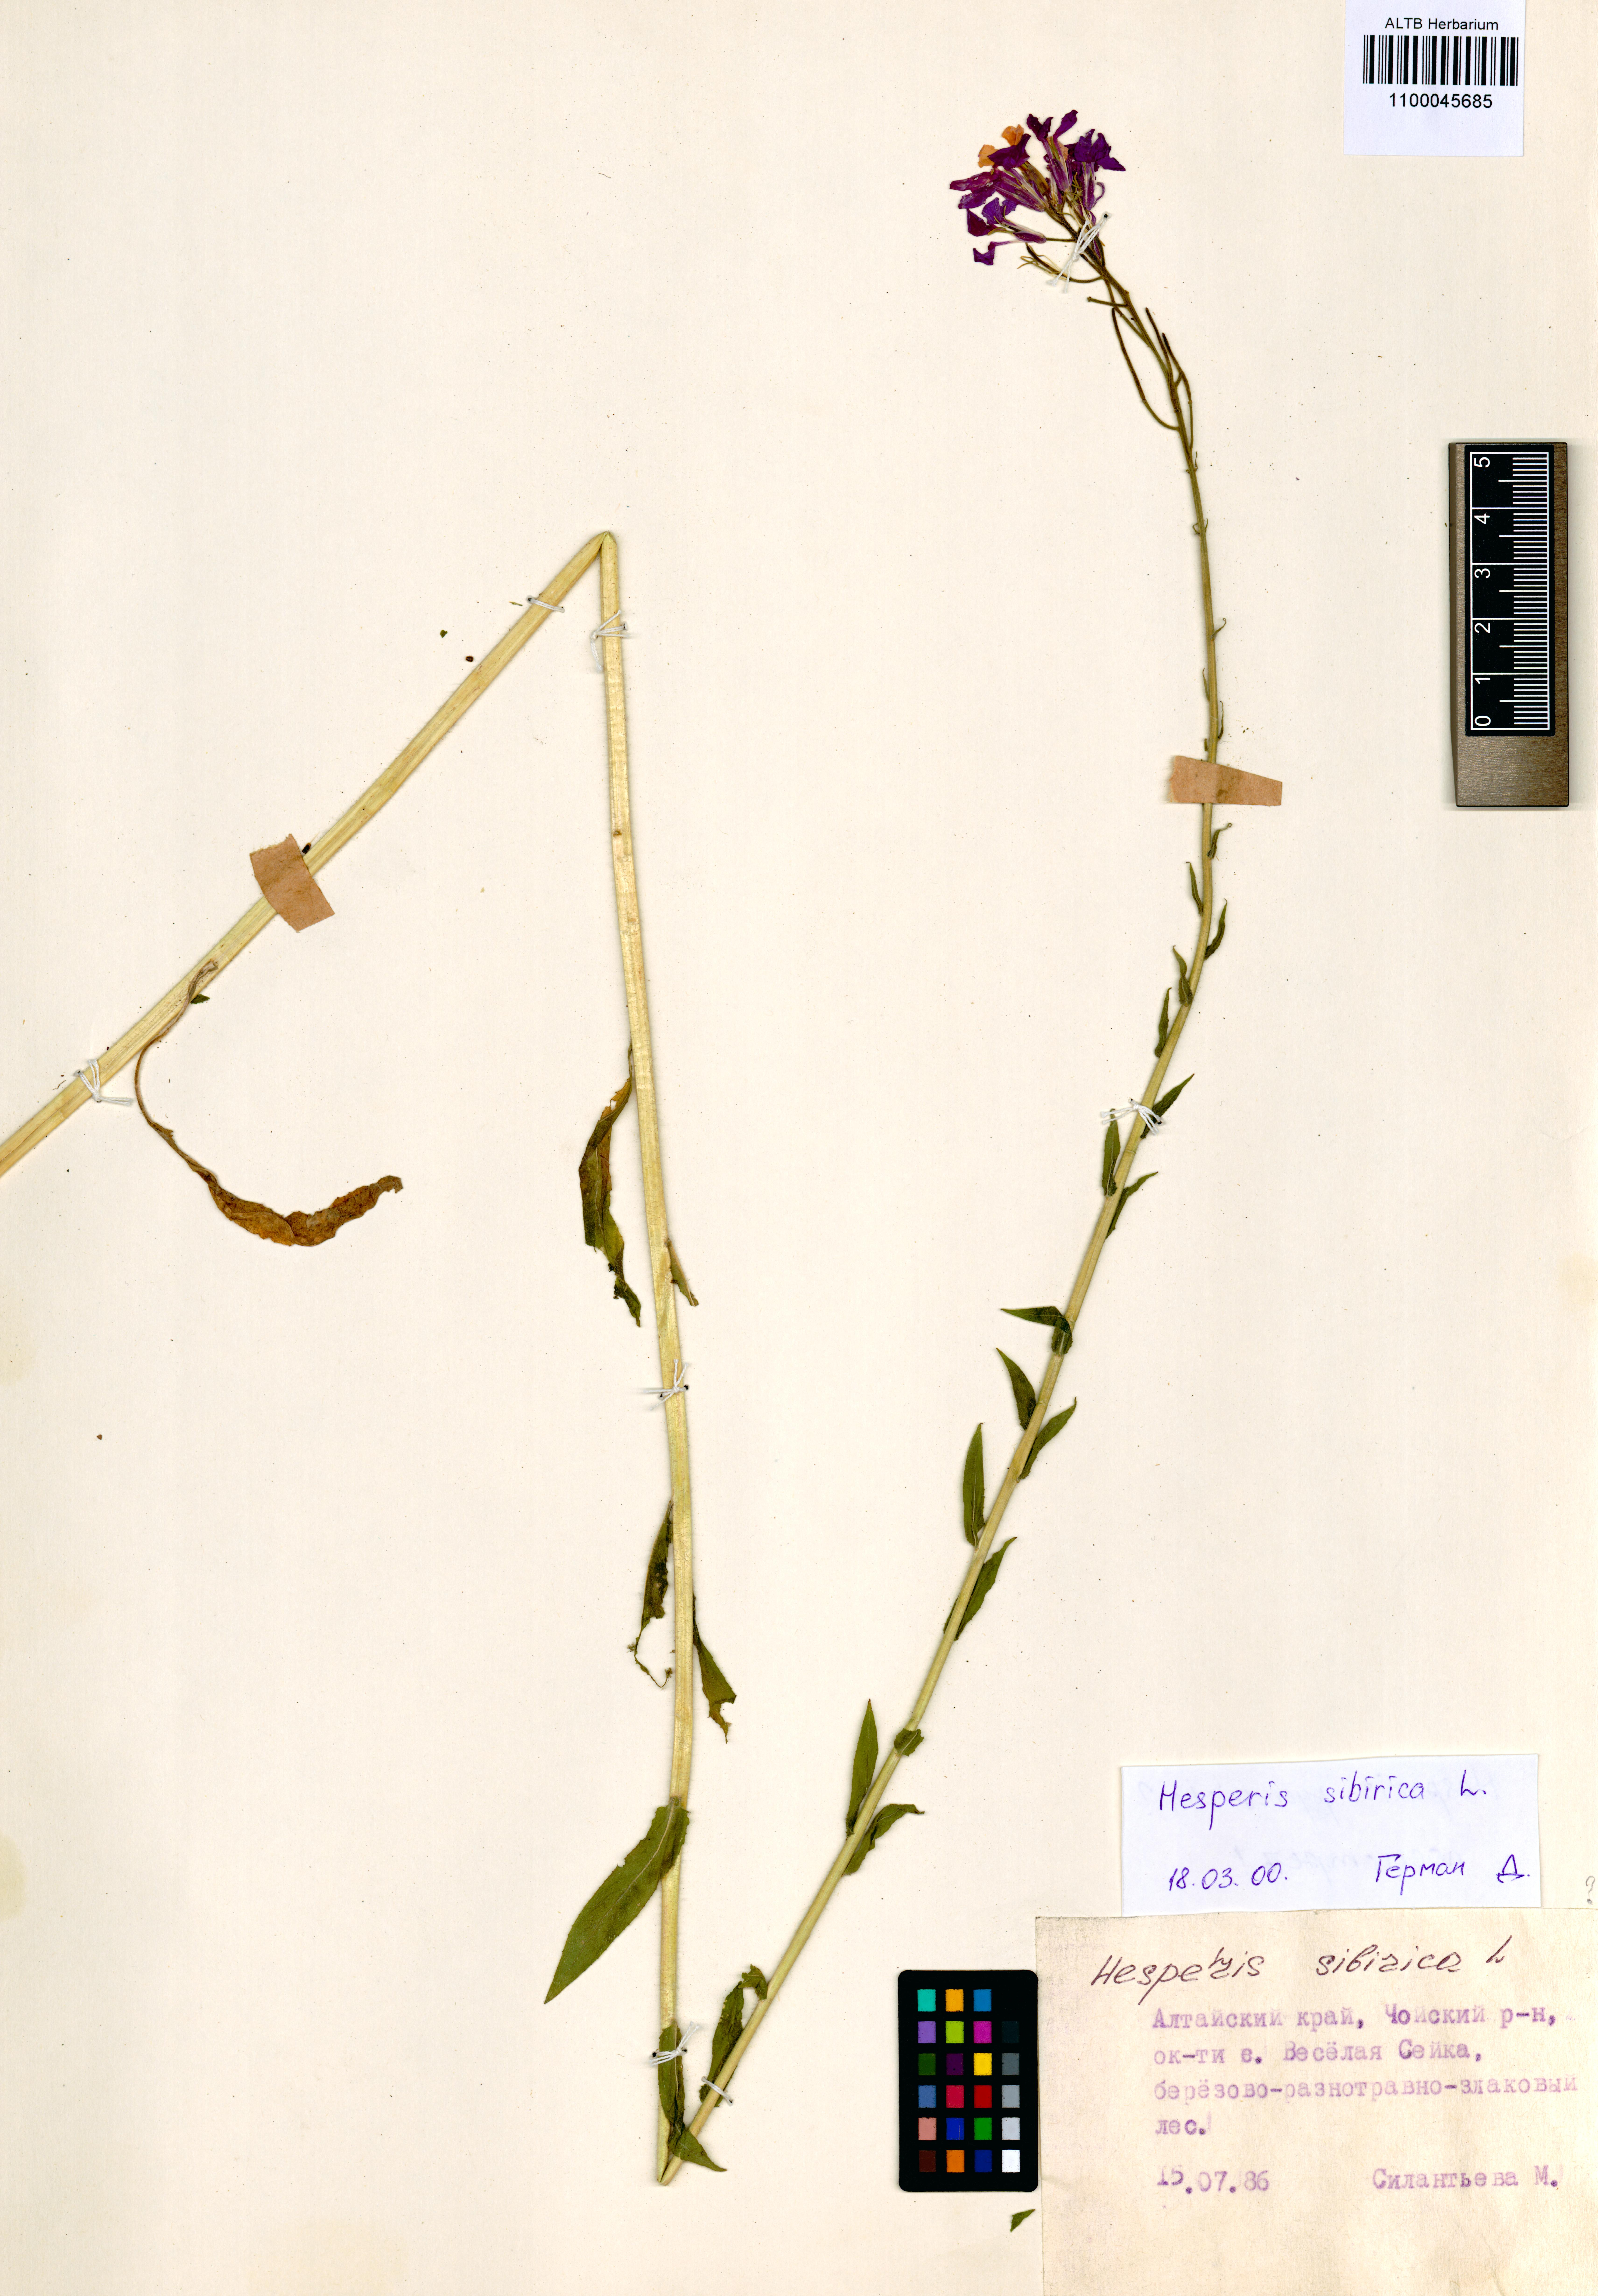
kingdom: Plantae
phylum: Tracheophyta
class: Magnoliopsida
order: Brassicales
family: Brassicaceae
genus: Hesperis
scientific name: Hesperis sibirica
